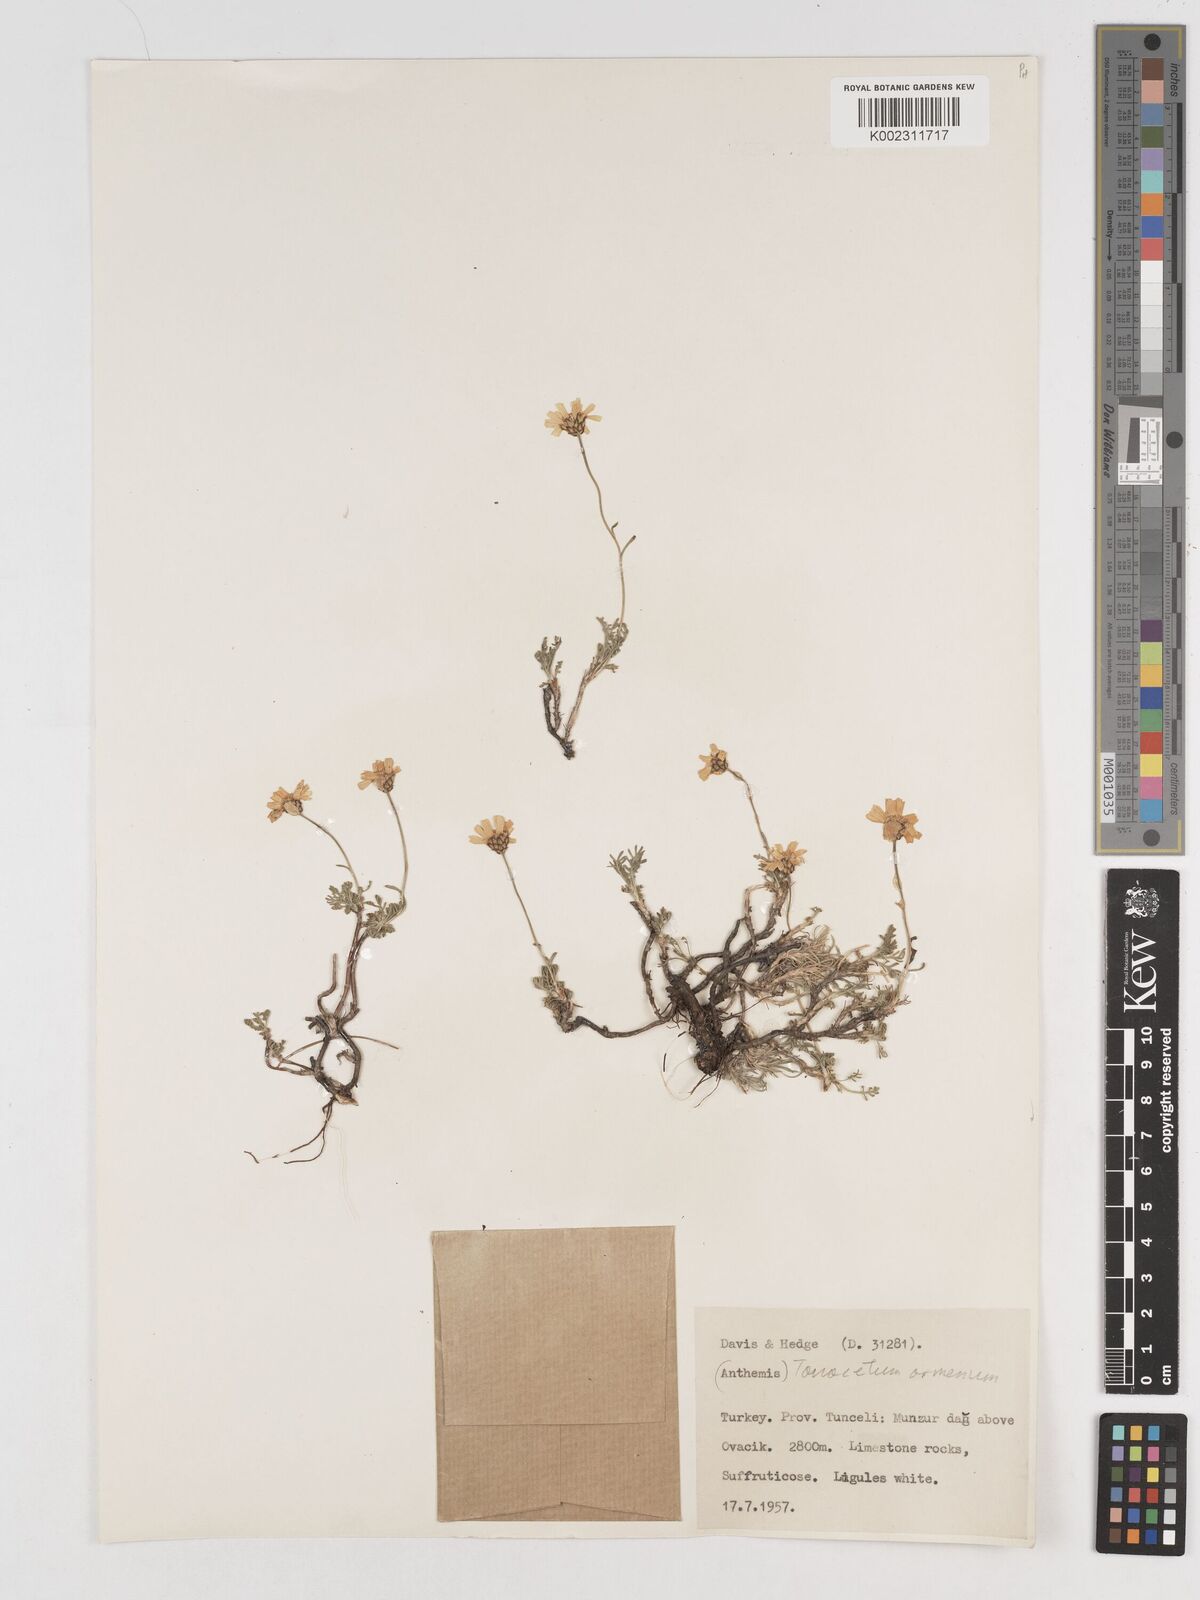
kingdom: Plantae
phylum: Tracheophyta
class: Magnoliopsida
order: Asterales
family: Asteraceae
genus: Tanacetum
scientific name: Tanacetum armenum
